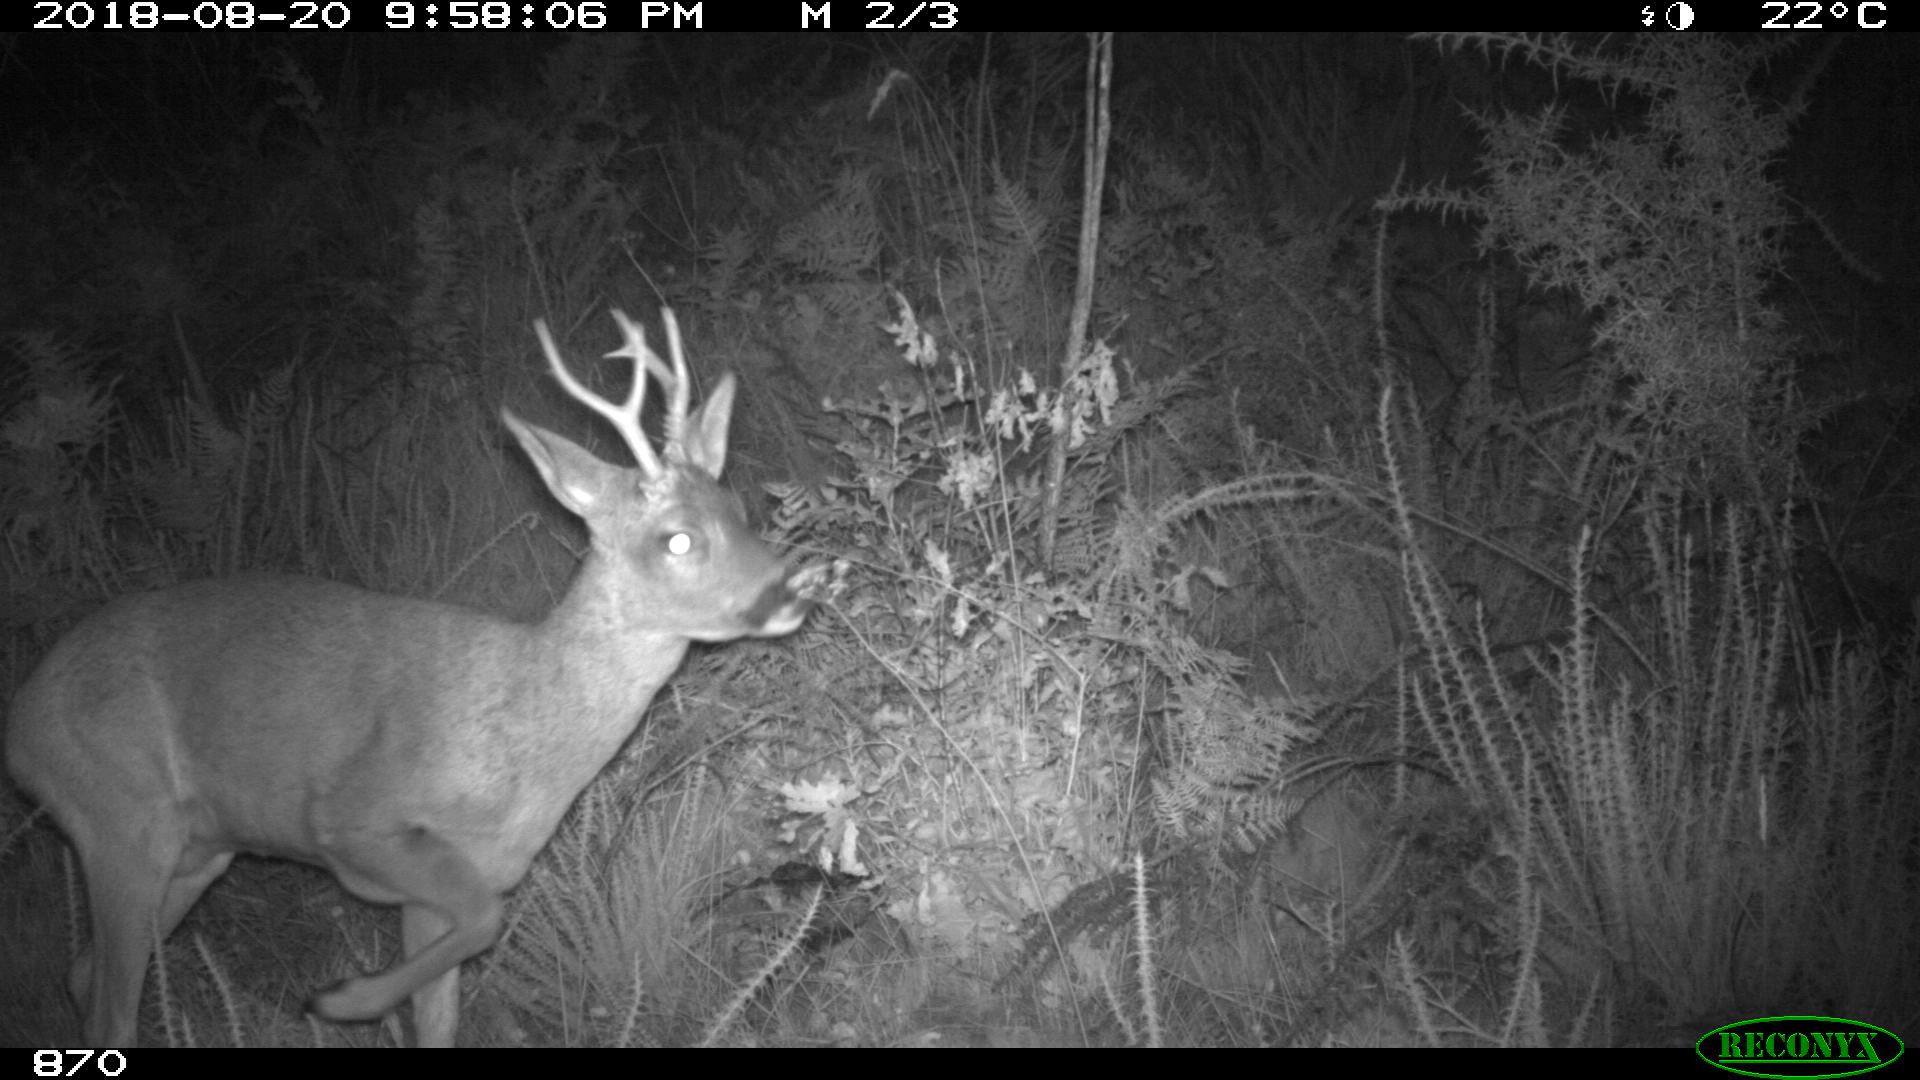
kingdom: Animalia
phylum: Chordata
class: Mammalia
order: Artiodactyla
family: Cervidae
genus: Capreolus
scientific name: Capreolus capreolus
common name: Western roe deer
